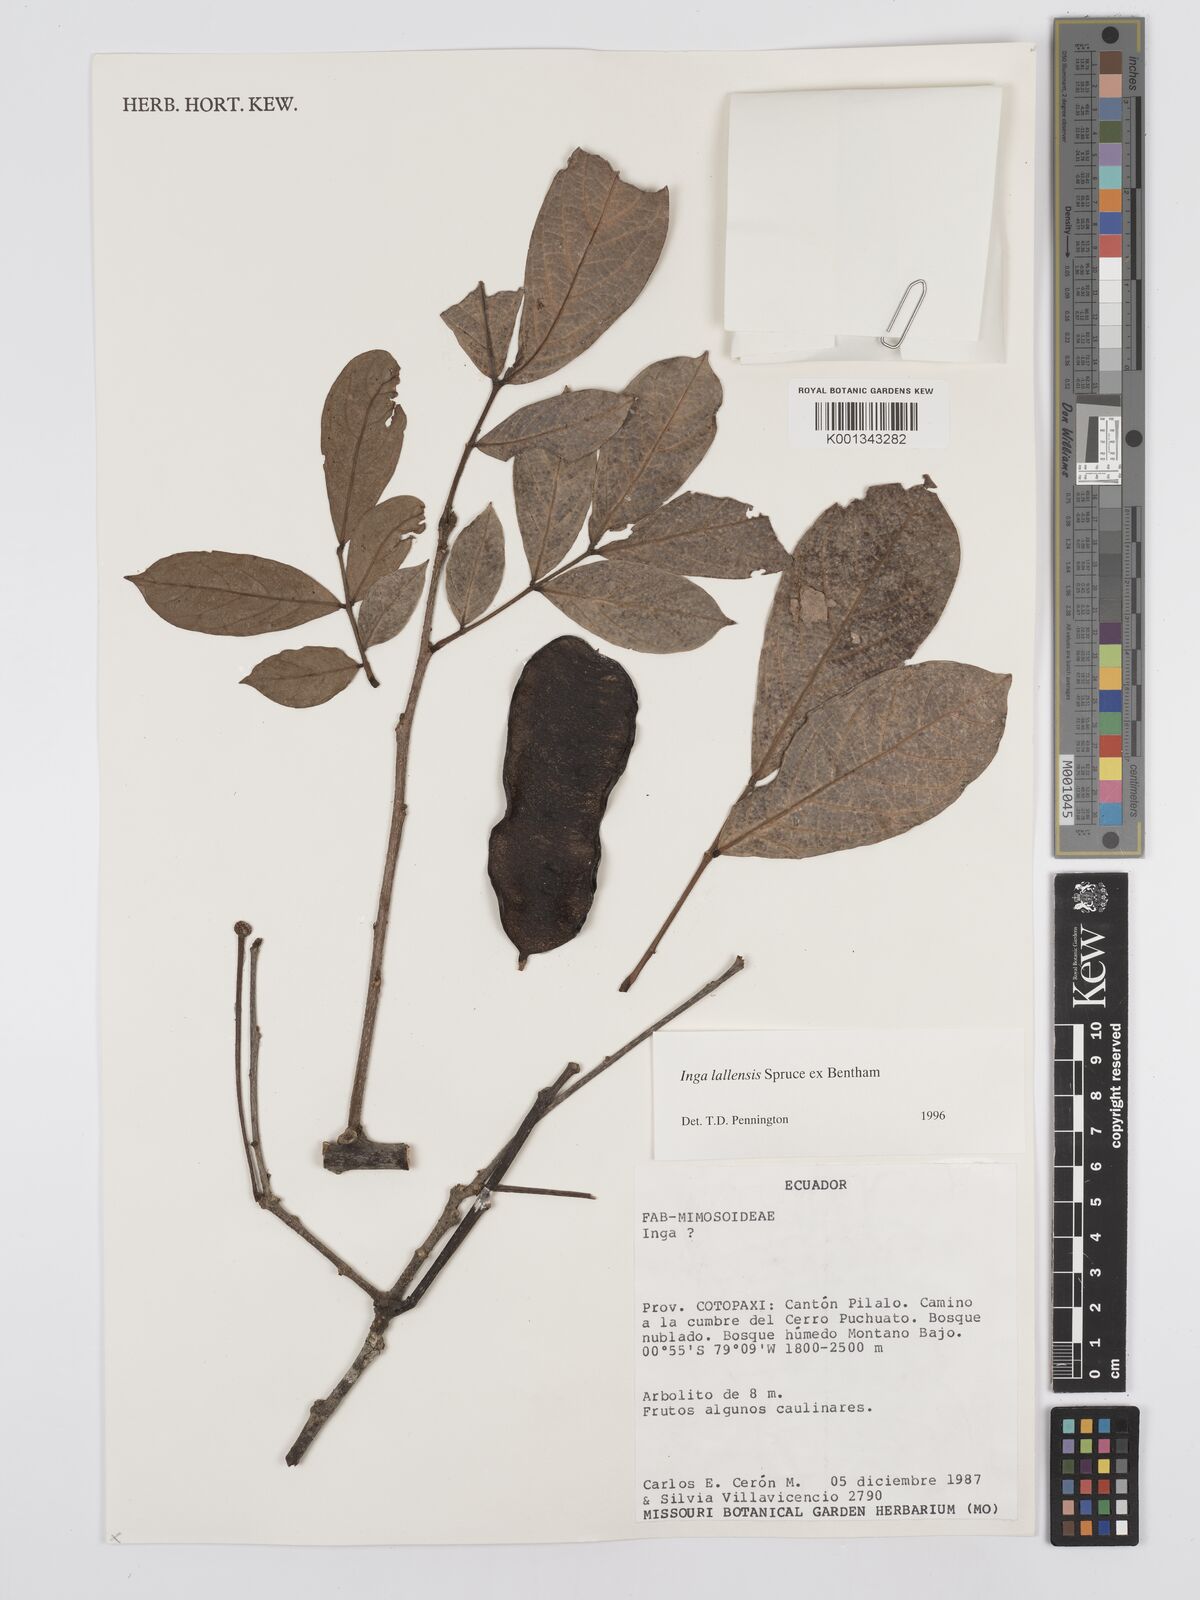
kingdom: Plantae
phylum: Tracheophyta
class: Magnoliopsida
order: Fabales
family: Fabaceae
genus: Inga
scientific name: Inga lallensis
